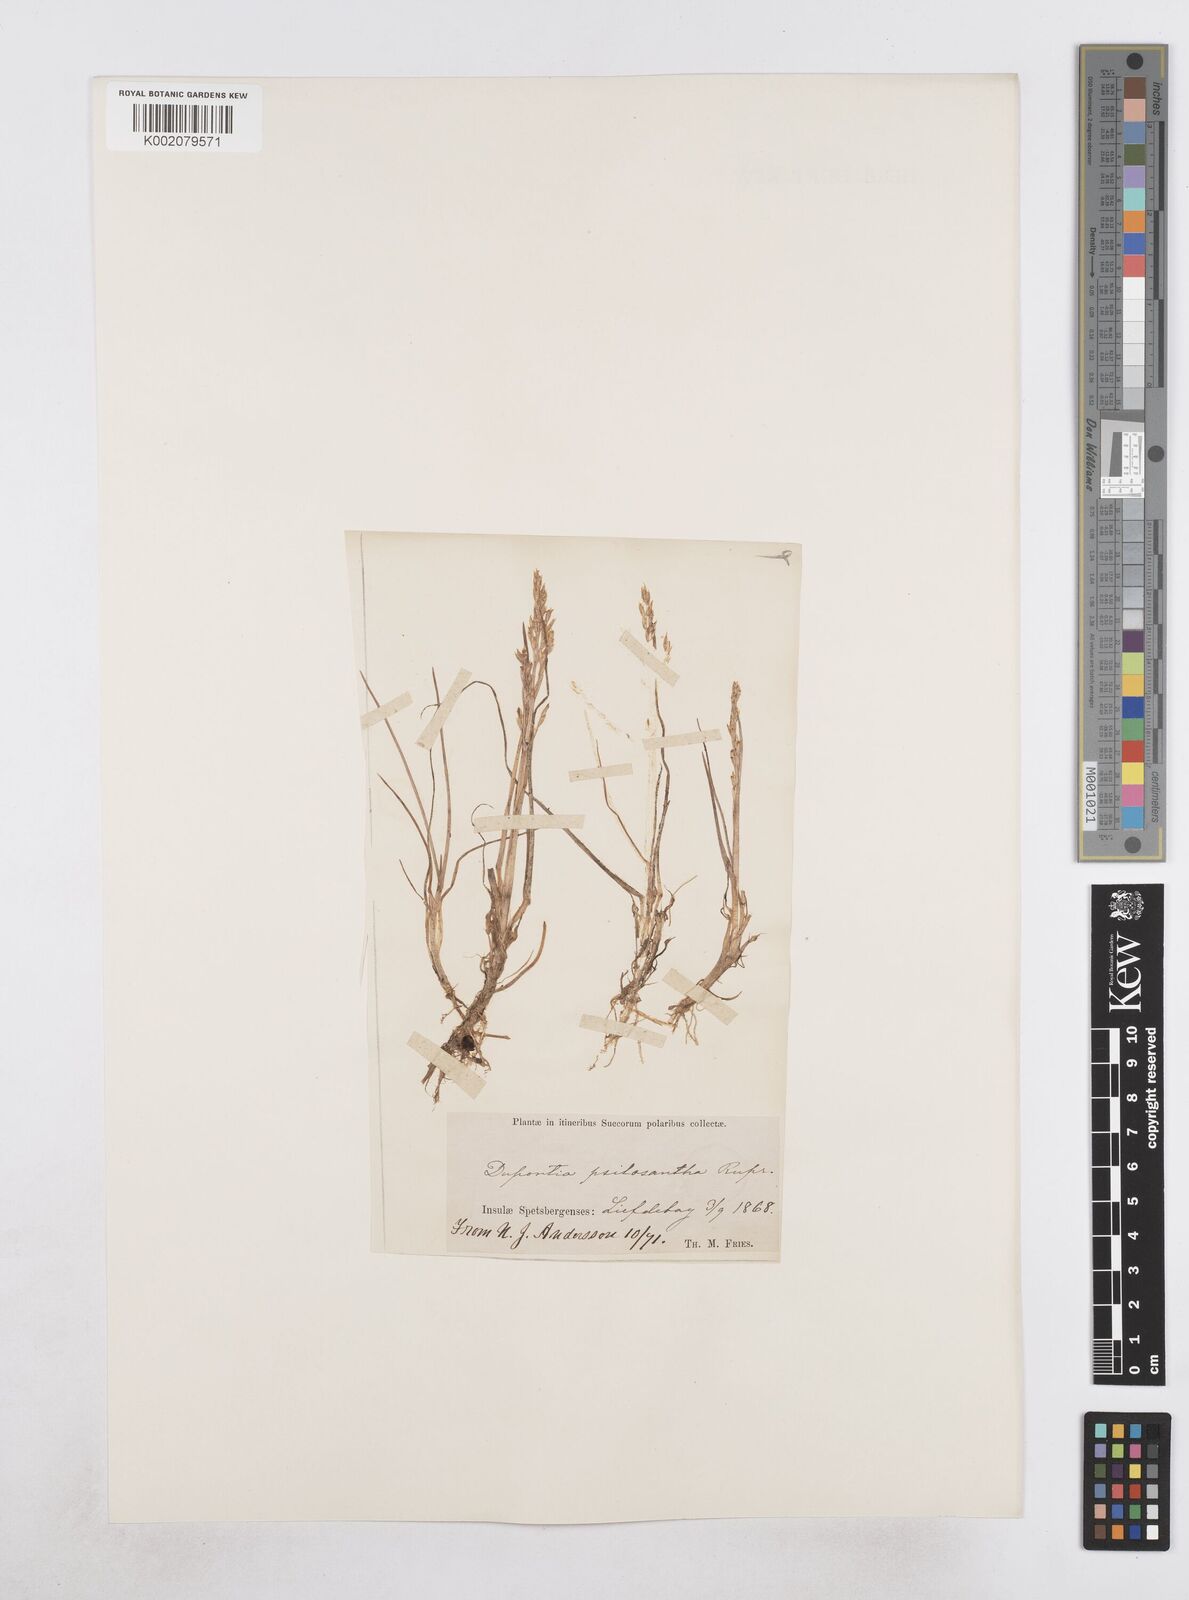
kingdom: Plantae
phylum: Tracheophyta
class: Liliopsida
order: Poales
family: Poaceae
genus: Dupontia
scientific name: Dupontia fisheri
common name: Tundra grass
